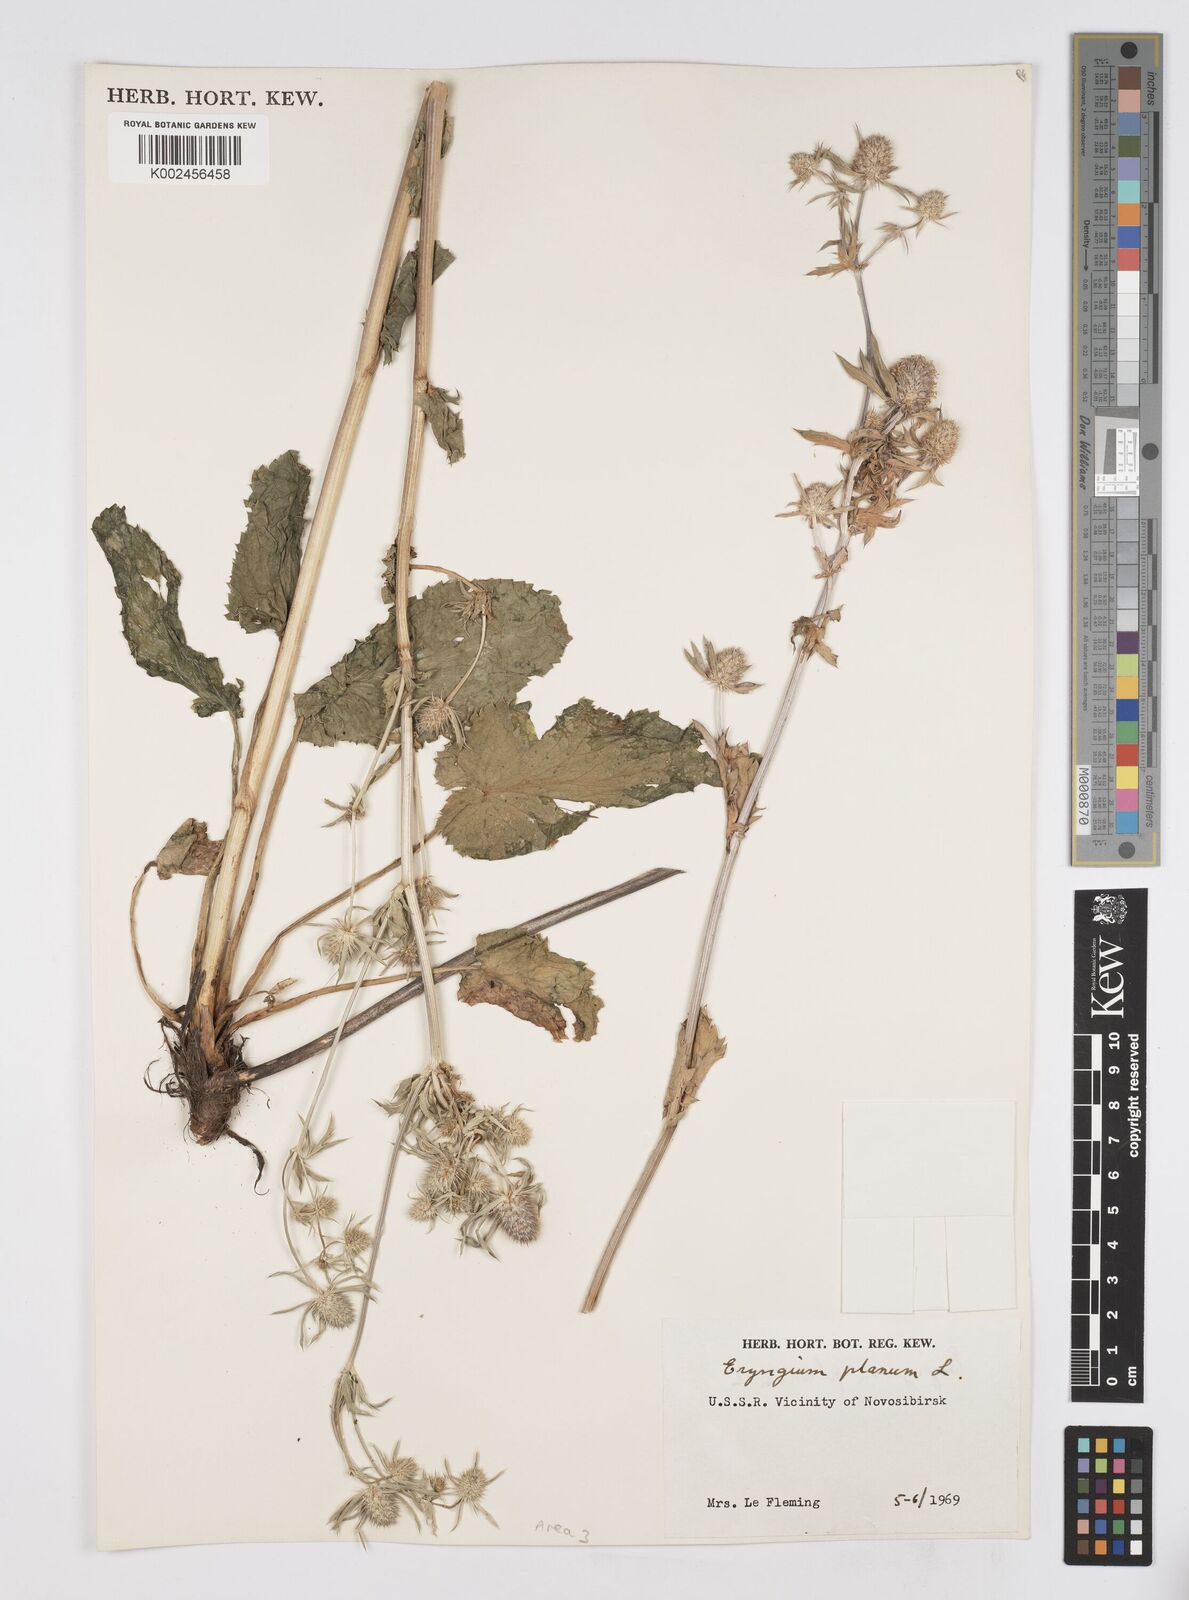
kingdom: Plantae
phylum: Tracheophyta
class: Magnoliopsida
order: Apiales
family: Apiaceae
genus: Eryngium
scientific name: Eryngium planum
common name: Blue eryngo
